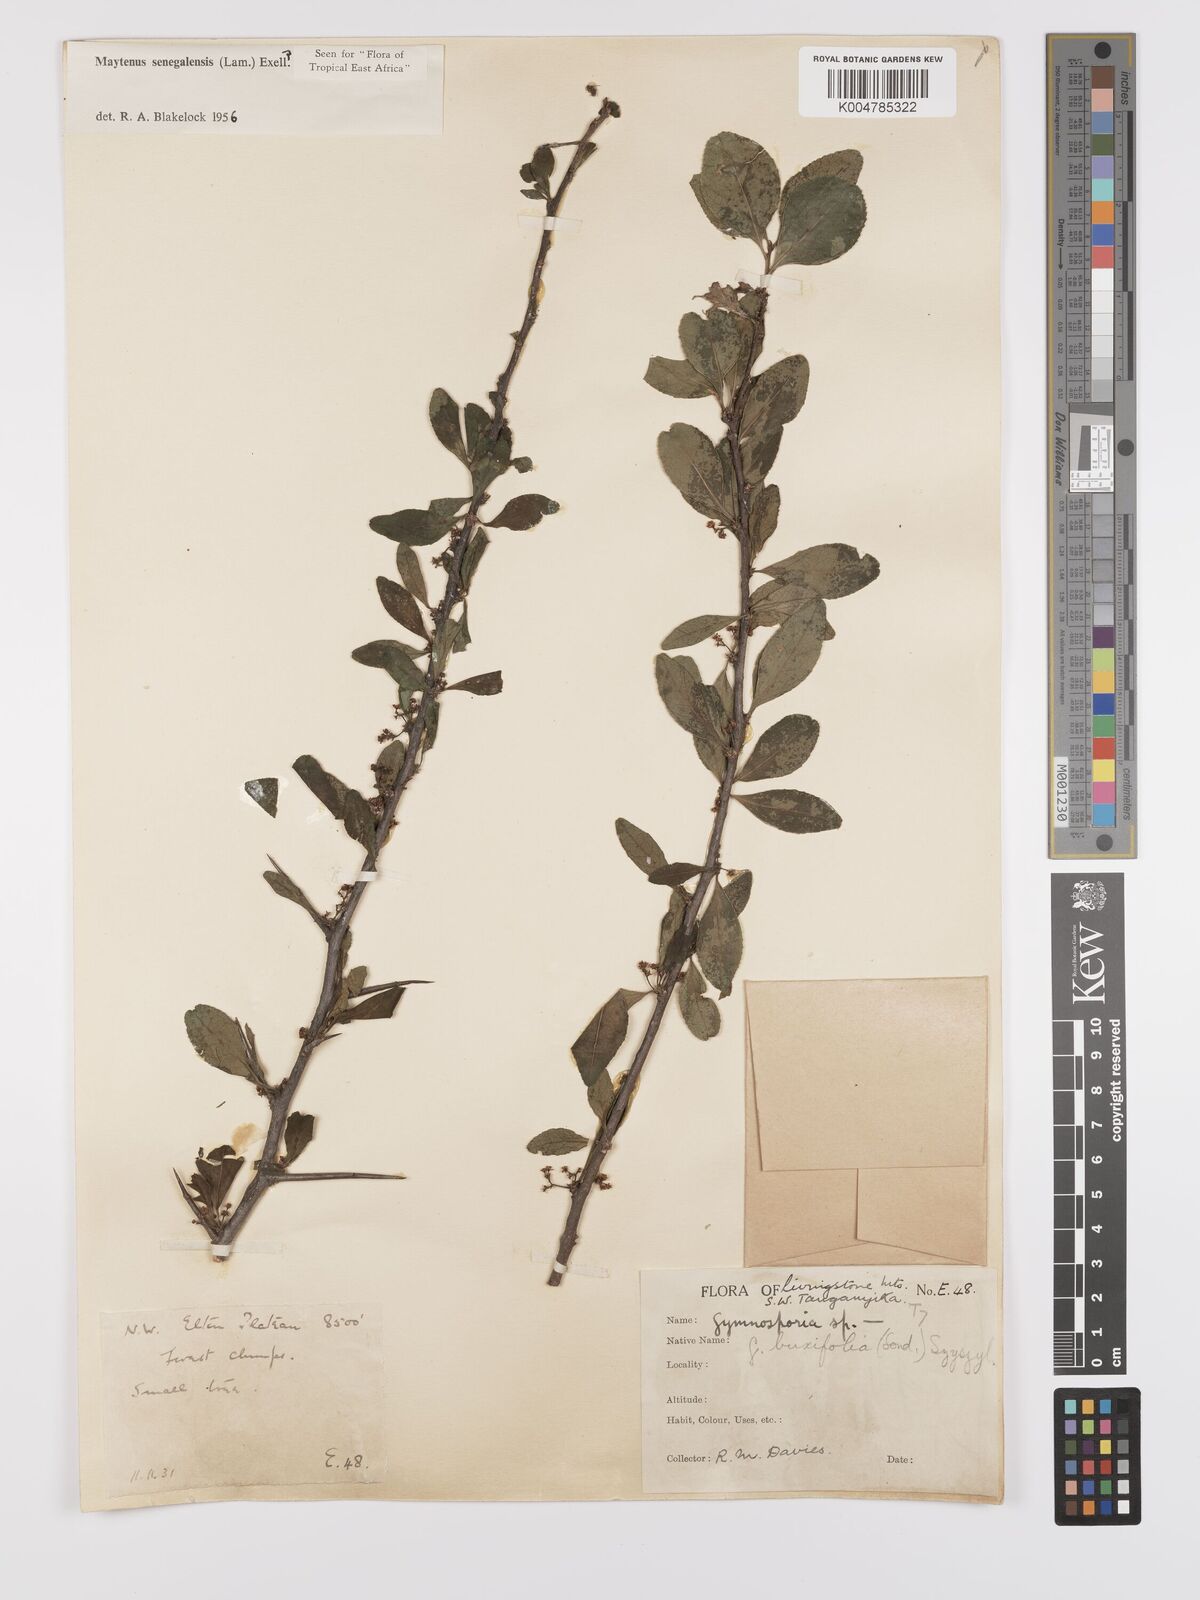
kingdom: Plantae
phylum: Tracheophyta
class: Magnoliopsida
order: Celastrales
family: Celastraceae
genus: Gymnosporia
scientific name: Gymnosporia heterophylla
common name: Angle-stem spikethorn
